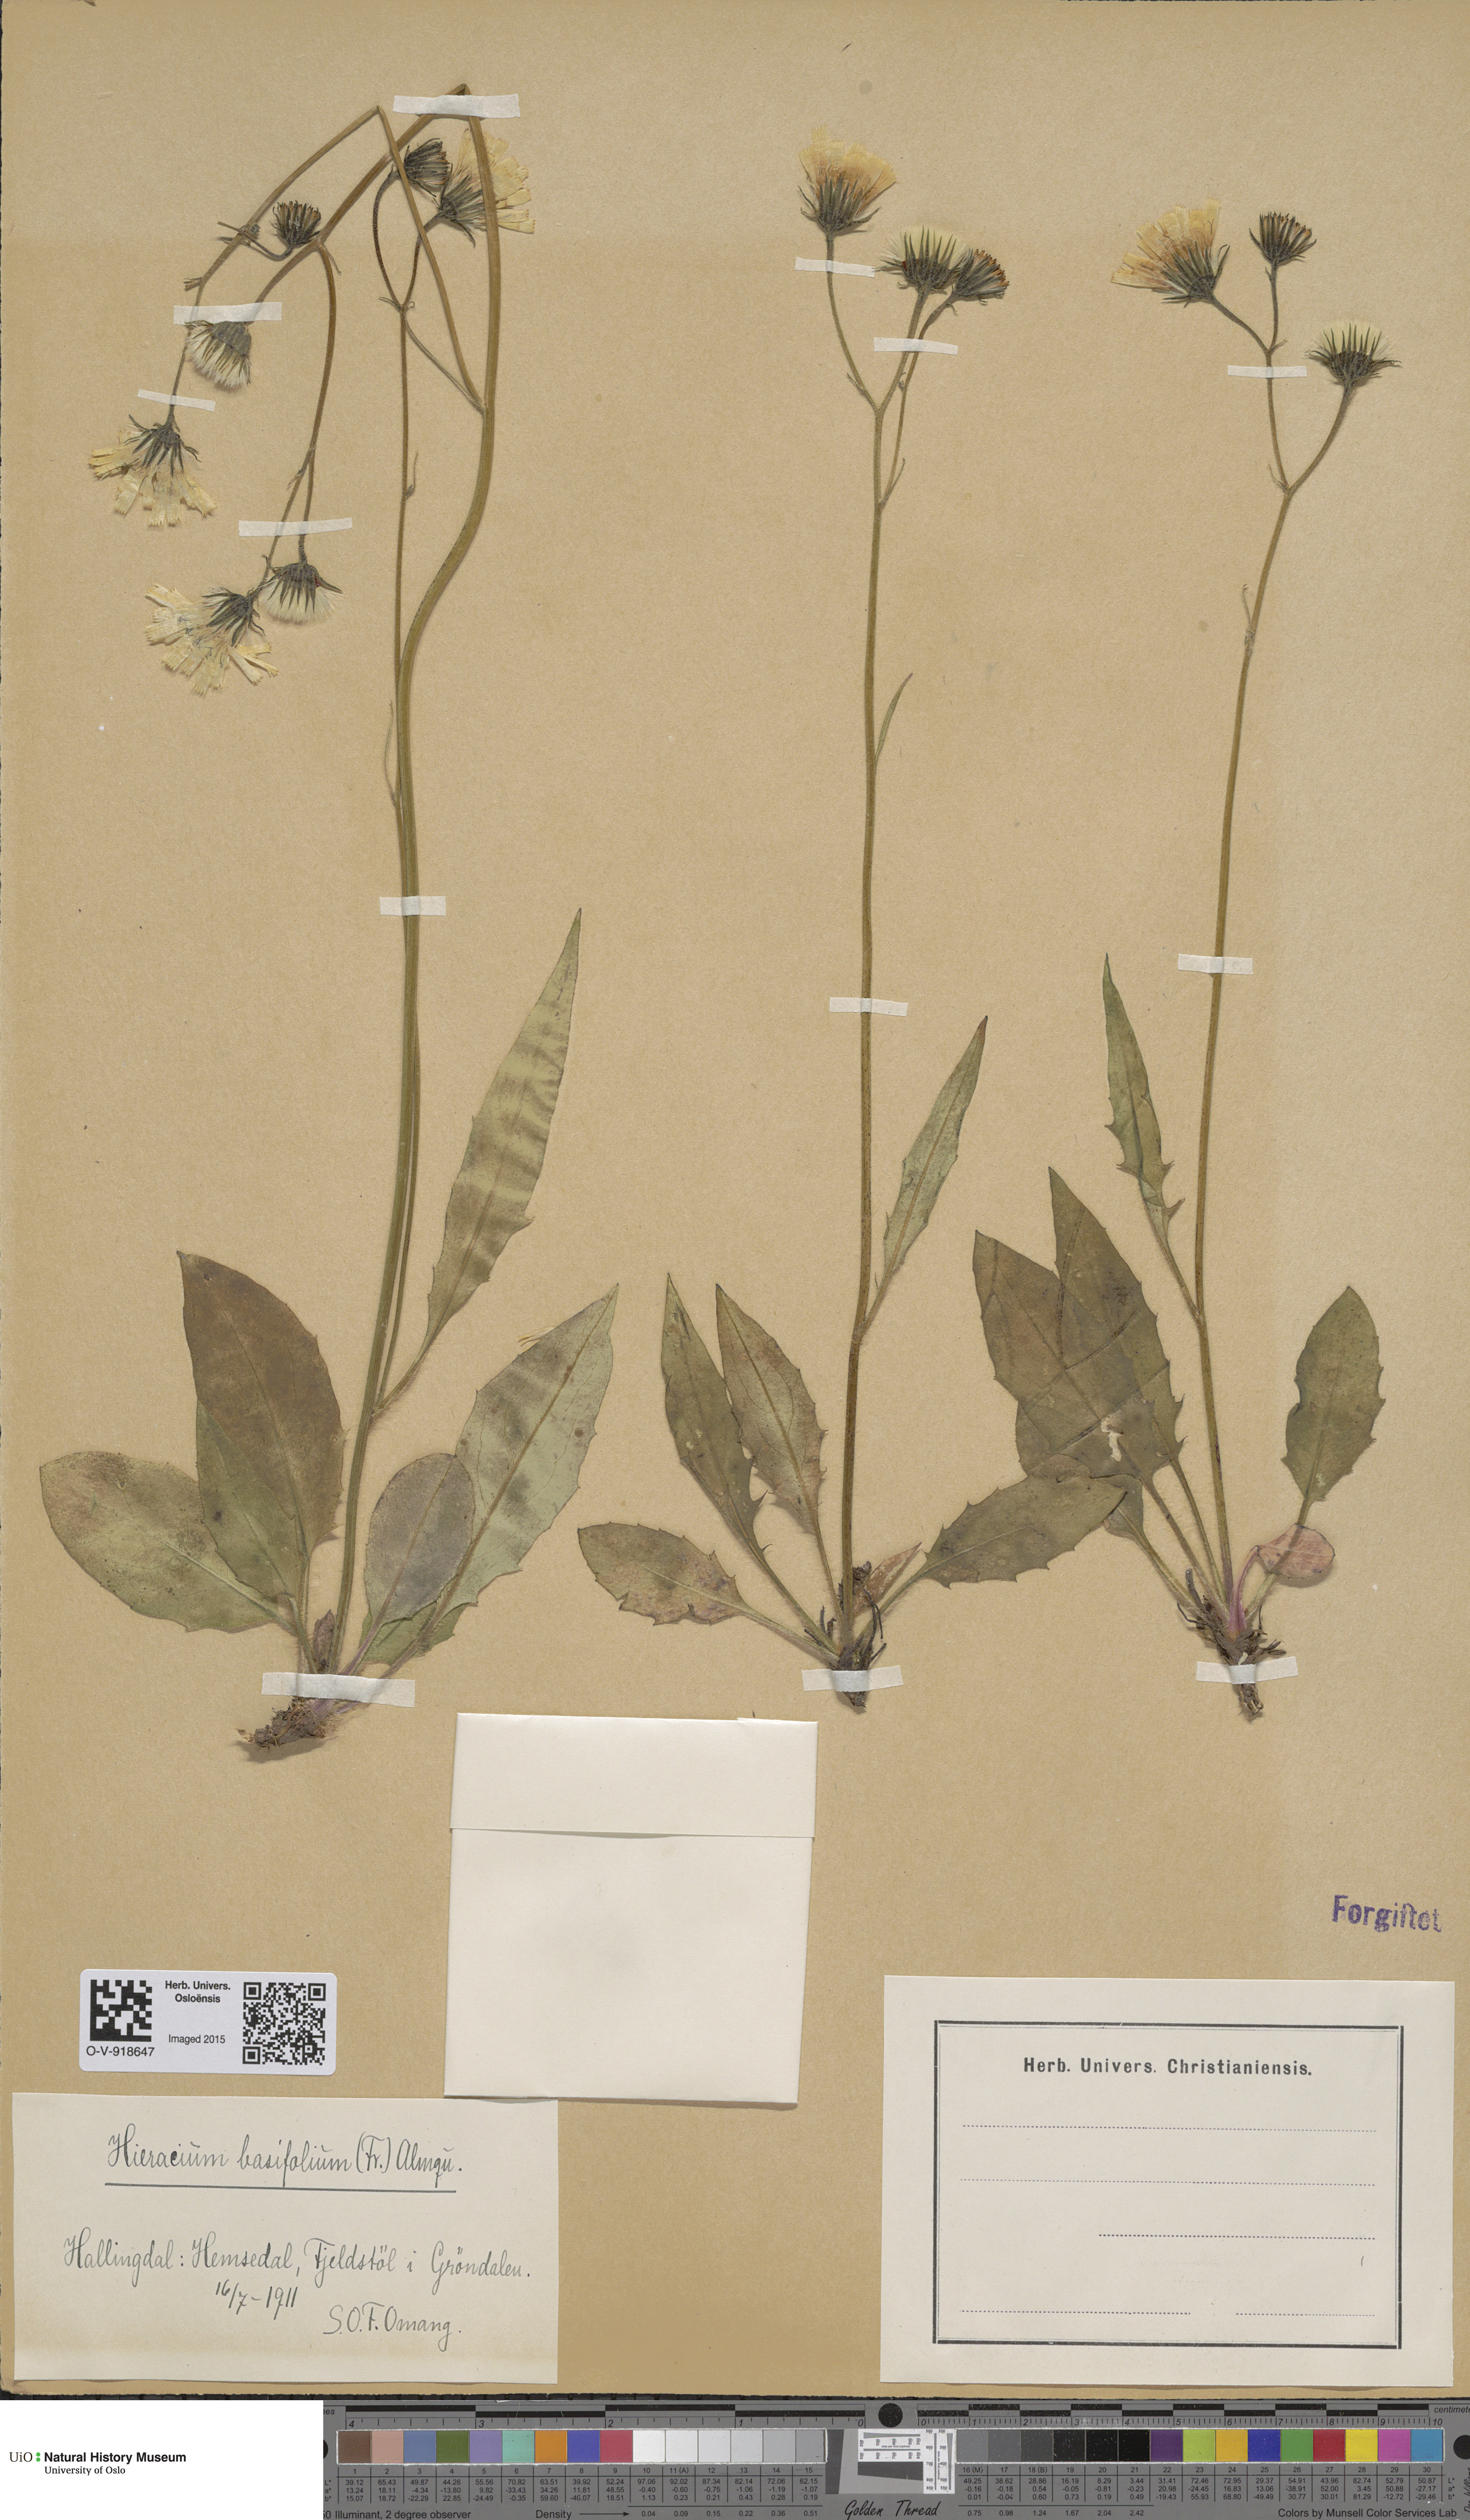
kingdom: Plantae
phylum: Tracheophyta
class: Magnoliopsida
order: Asterales
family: Asteraceae
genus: Hieracium
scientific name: Hieracium basifolium
